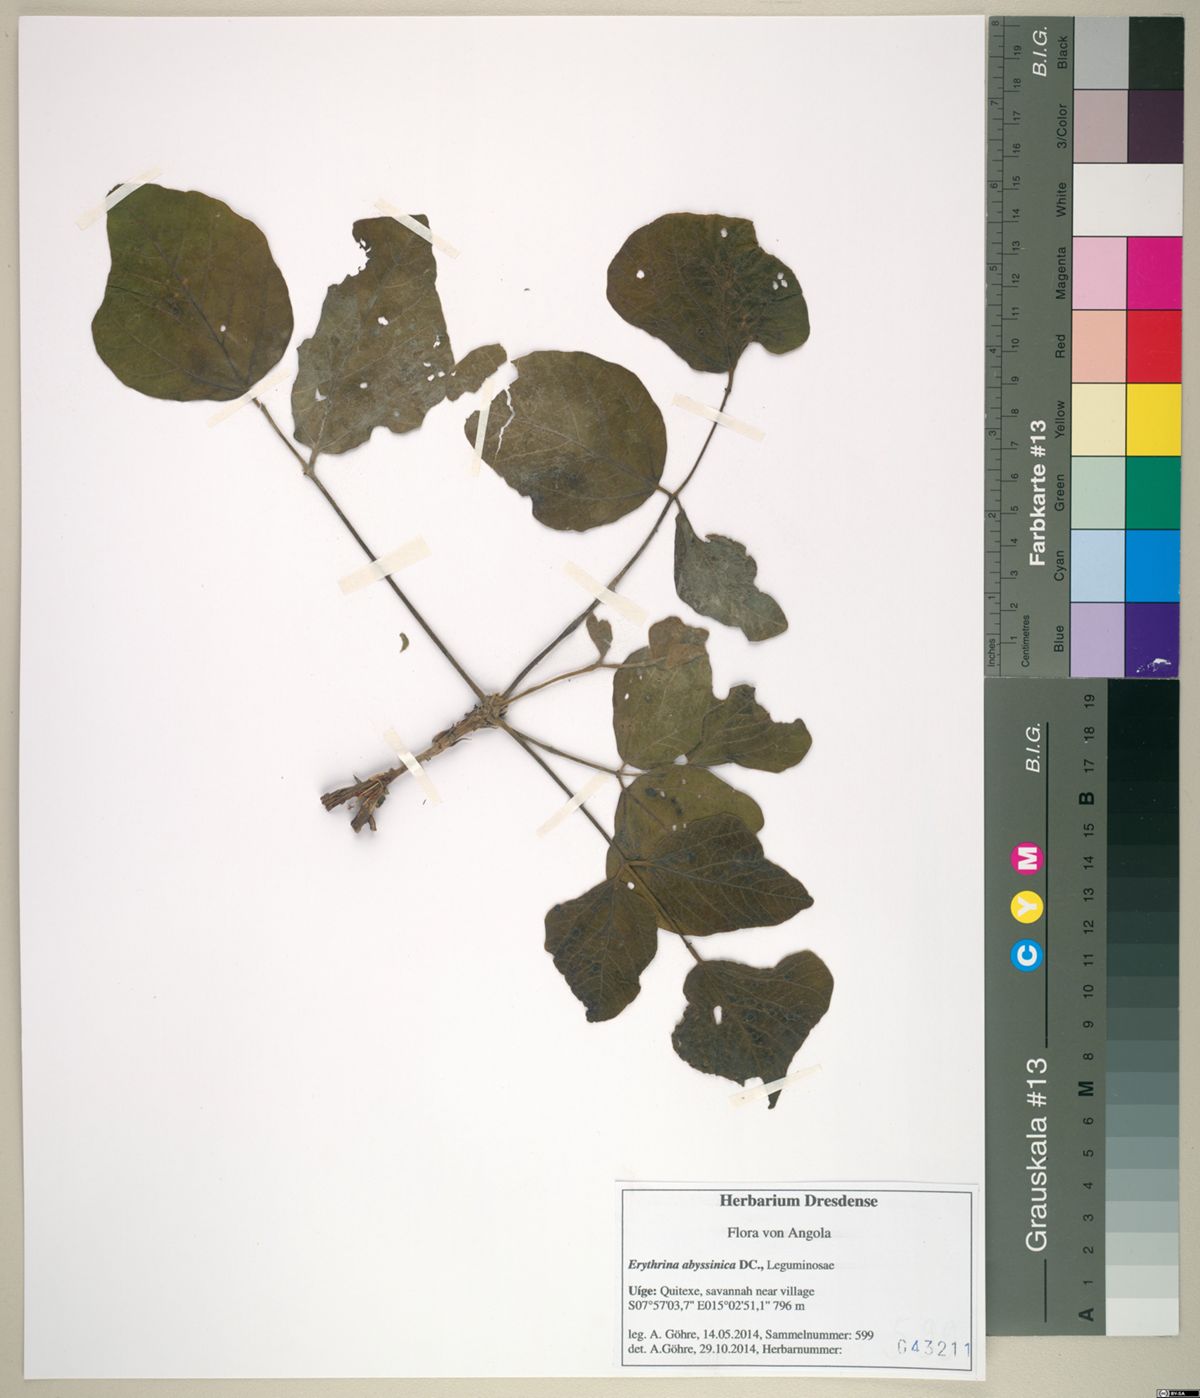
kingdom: Plantae
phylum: Tracheophyta
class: Magnoliopsida
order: Fabales
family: Fabaceae
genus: Erythrina
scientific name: Erythrina abyssinica
